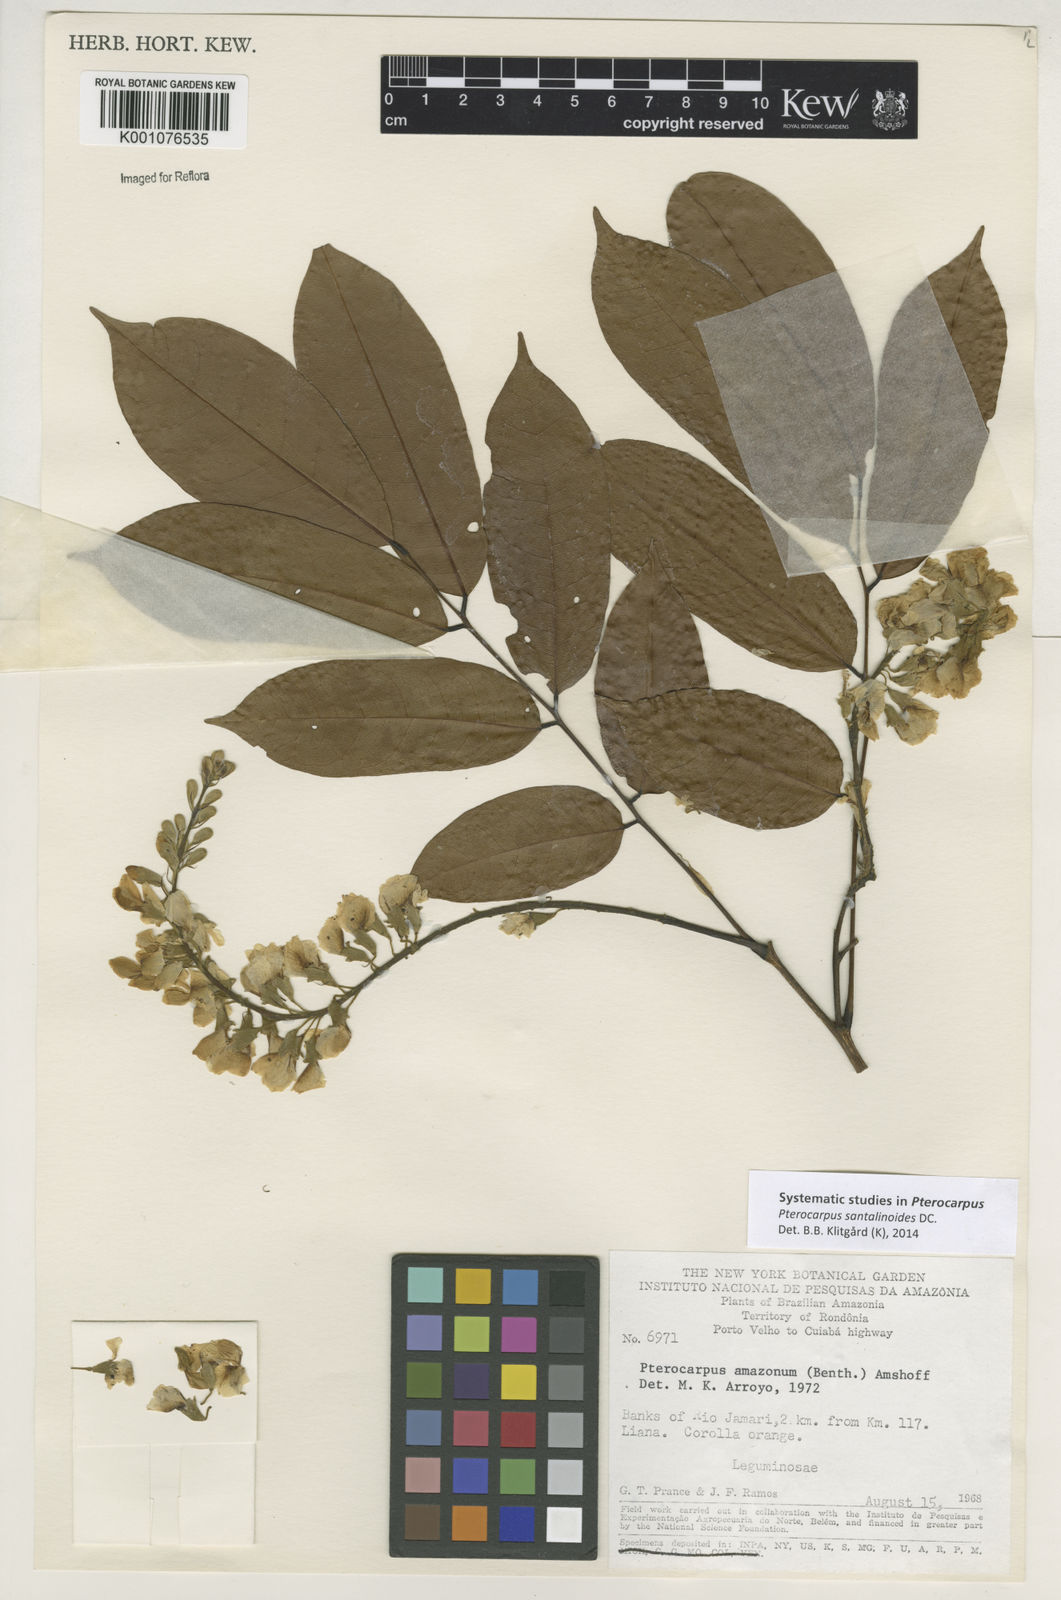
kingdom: Plantae
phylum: Tracheophyta
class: Magnoliopsida
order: Fabales
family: Fabaceae
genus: Pterocarpus
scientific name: Pterocarpus santalinoides
